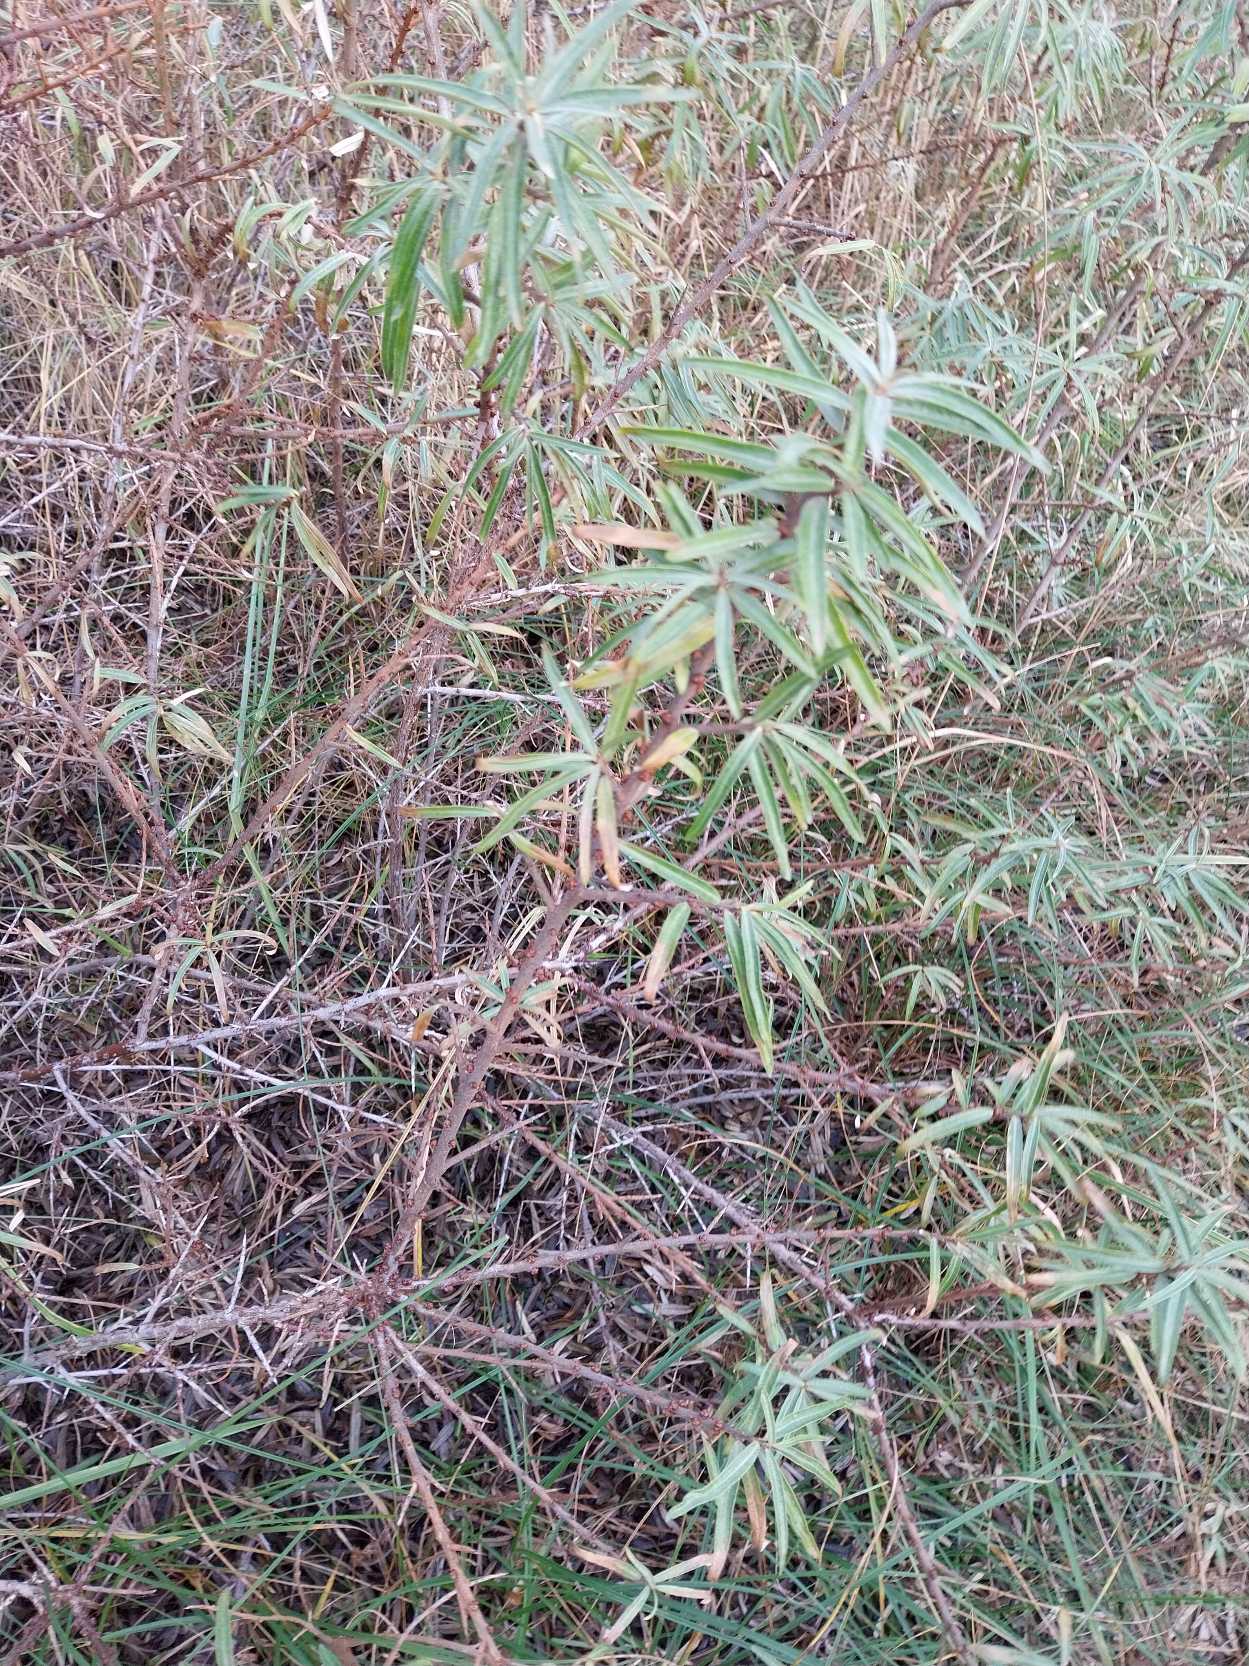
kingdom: Plantae
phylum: Tracheophyta
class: Magnoliopsida
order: Rosales
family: Elaeagnaceae
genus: Hippophae
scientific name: Hippophae rhamnoides
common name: Havtorn
